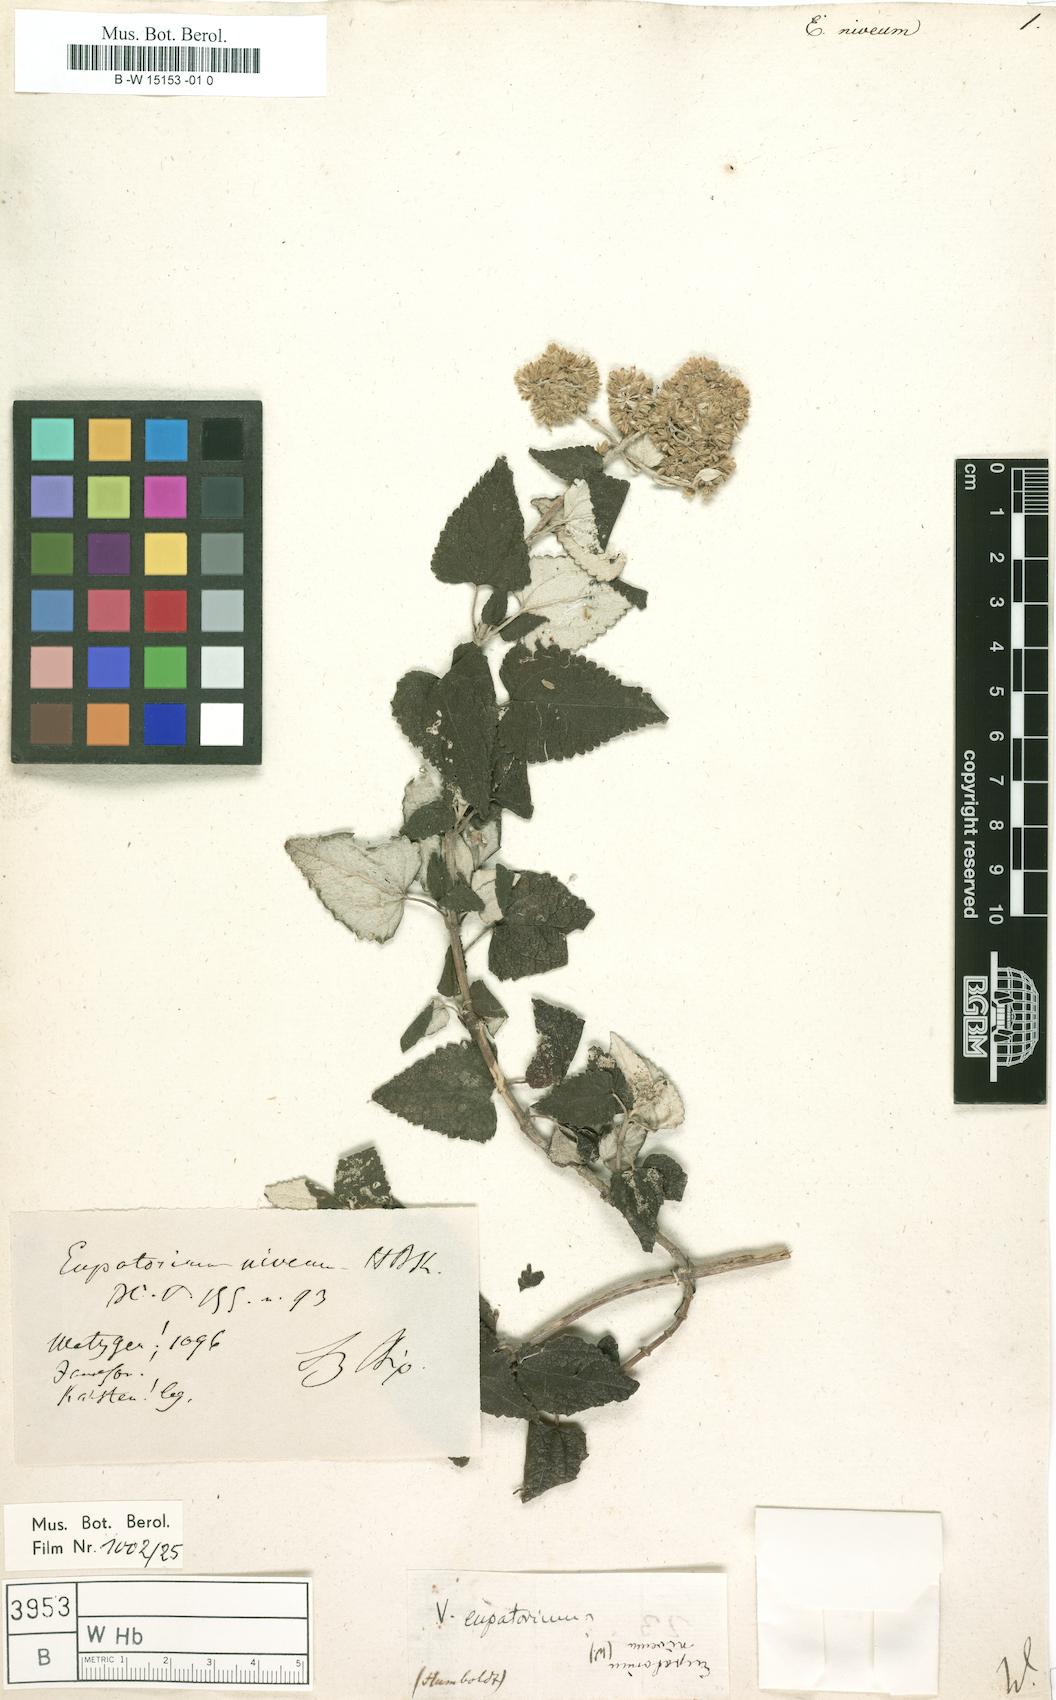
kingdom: Plantae
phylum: Tracheophyta
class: Magnoliopsida
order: Asterales
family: Asteraceae
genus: Cronquistianthus
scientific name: Cronquistianthus niveus
